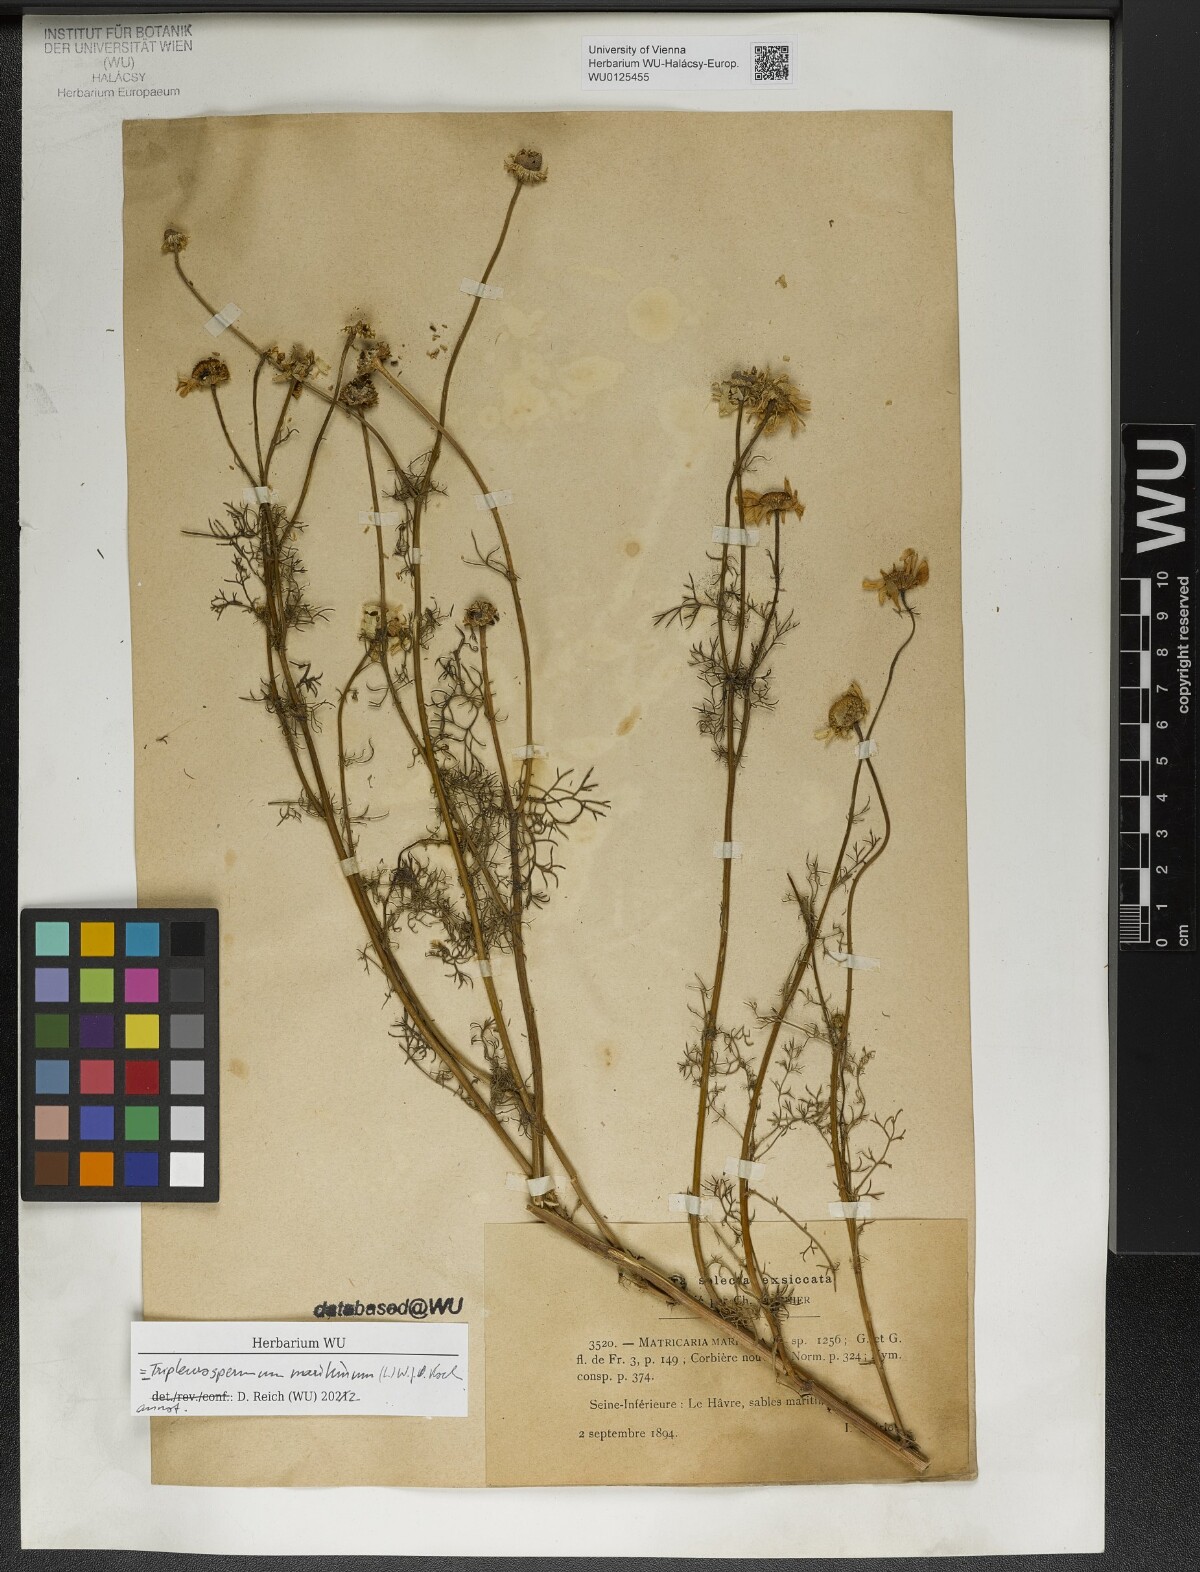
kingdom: Plantae
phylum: Tracheophyta
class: Magnoliopsida
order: Asterales
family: Asteraceae
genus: Tripleurospermum
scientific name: Tripleurospermum maritimum
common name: Sea mayweed
